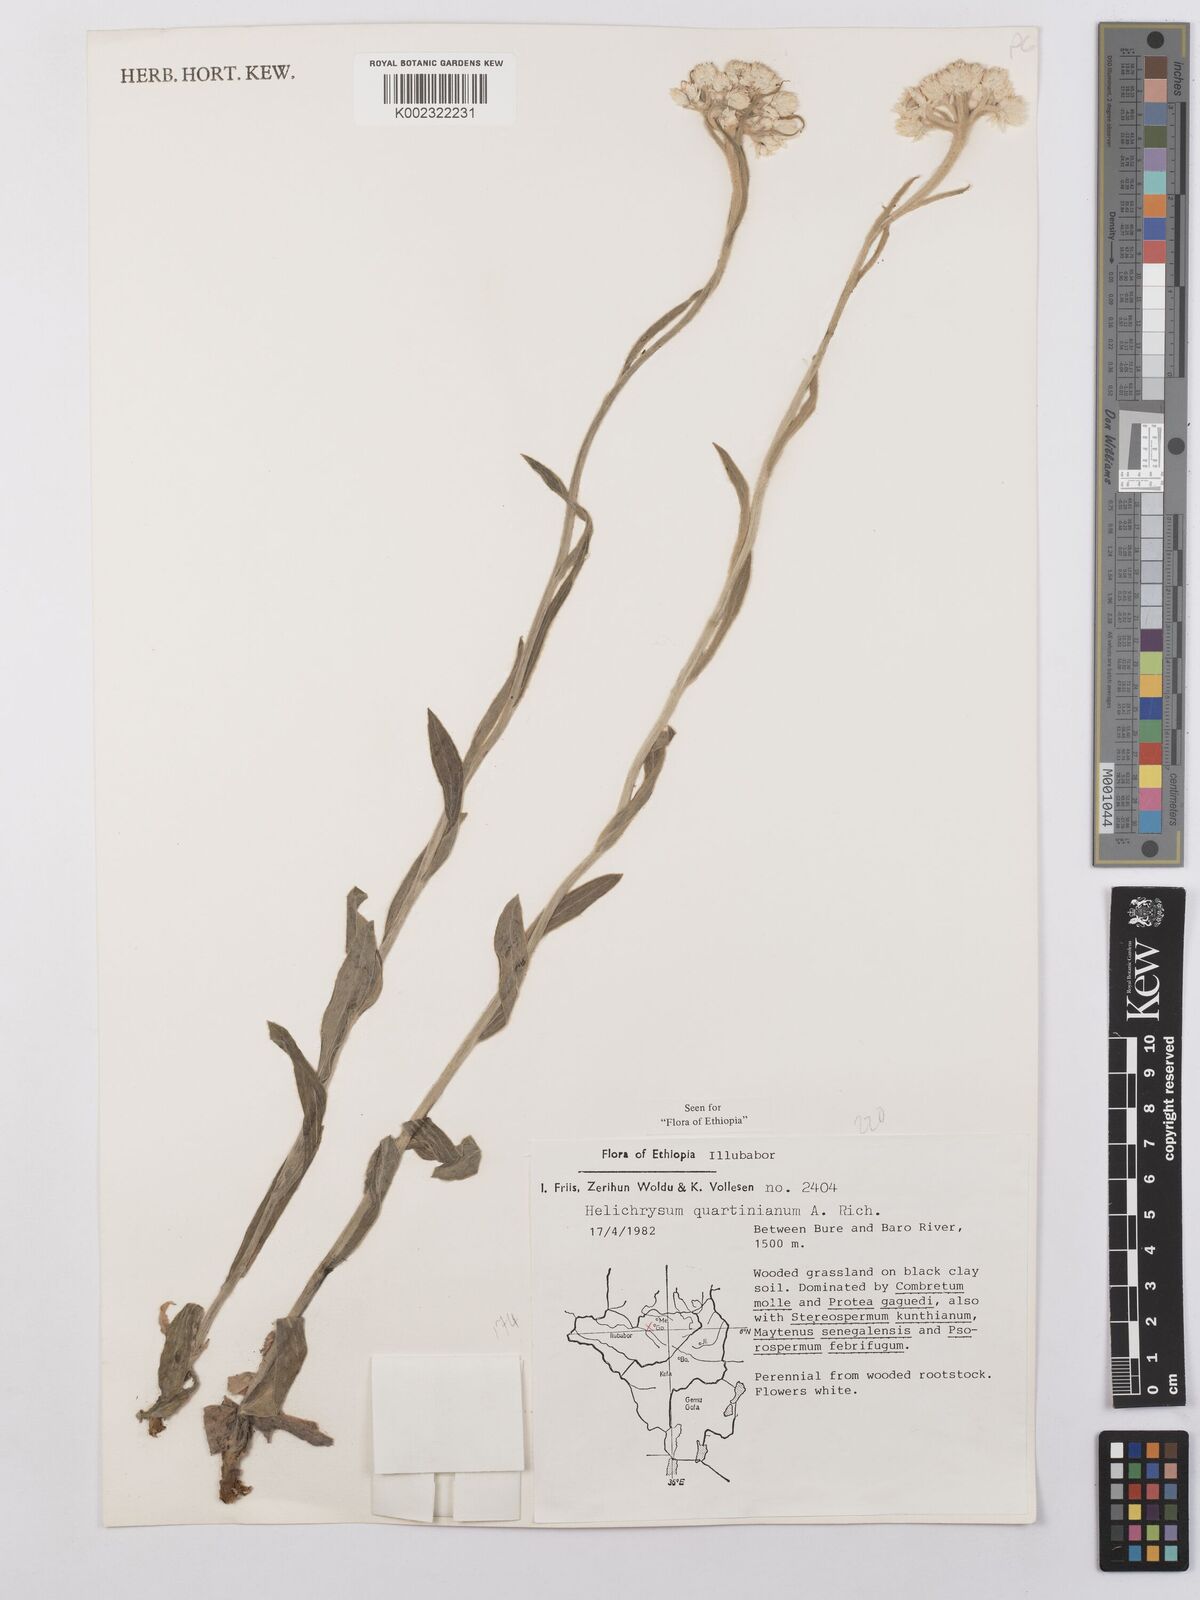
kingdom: Plantae
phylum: Tracheophyta
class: Magnoliopsida
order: Asterales
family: Asteraceae
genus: Helichrysum
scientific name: Helichrysum quartinianum
